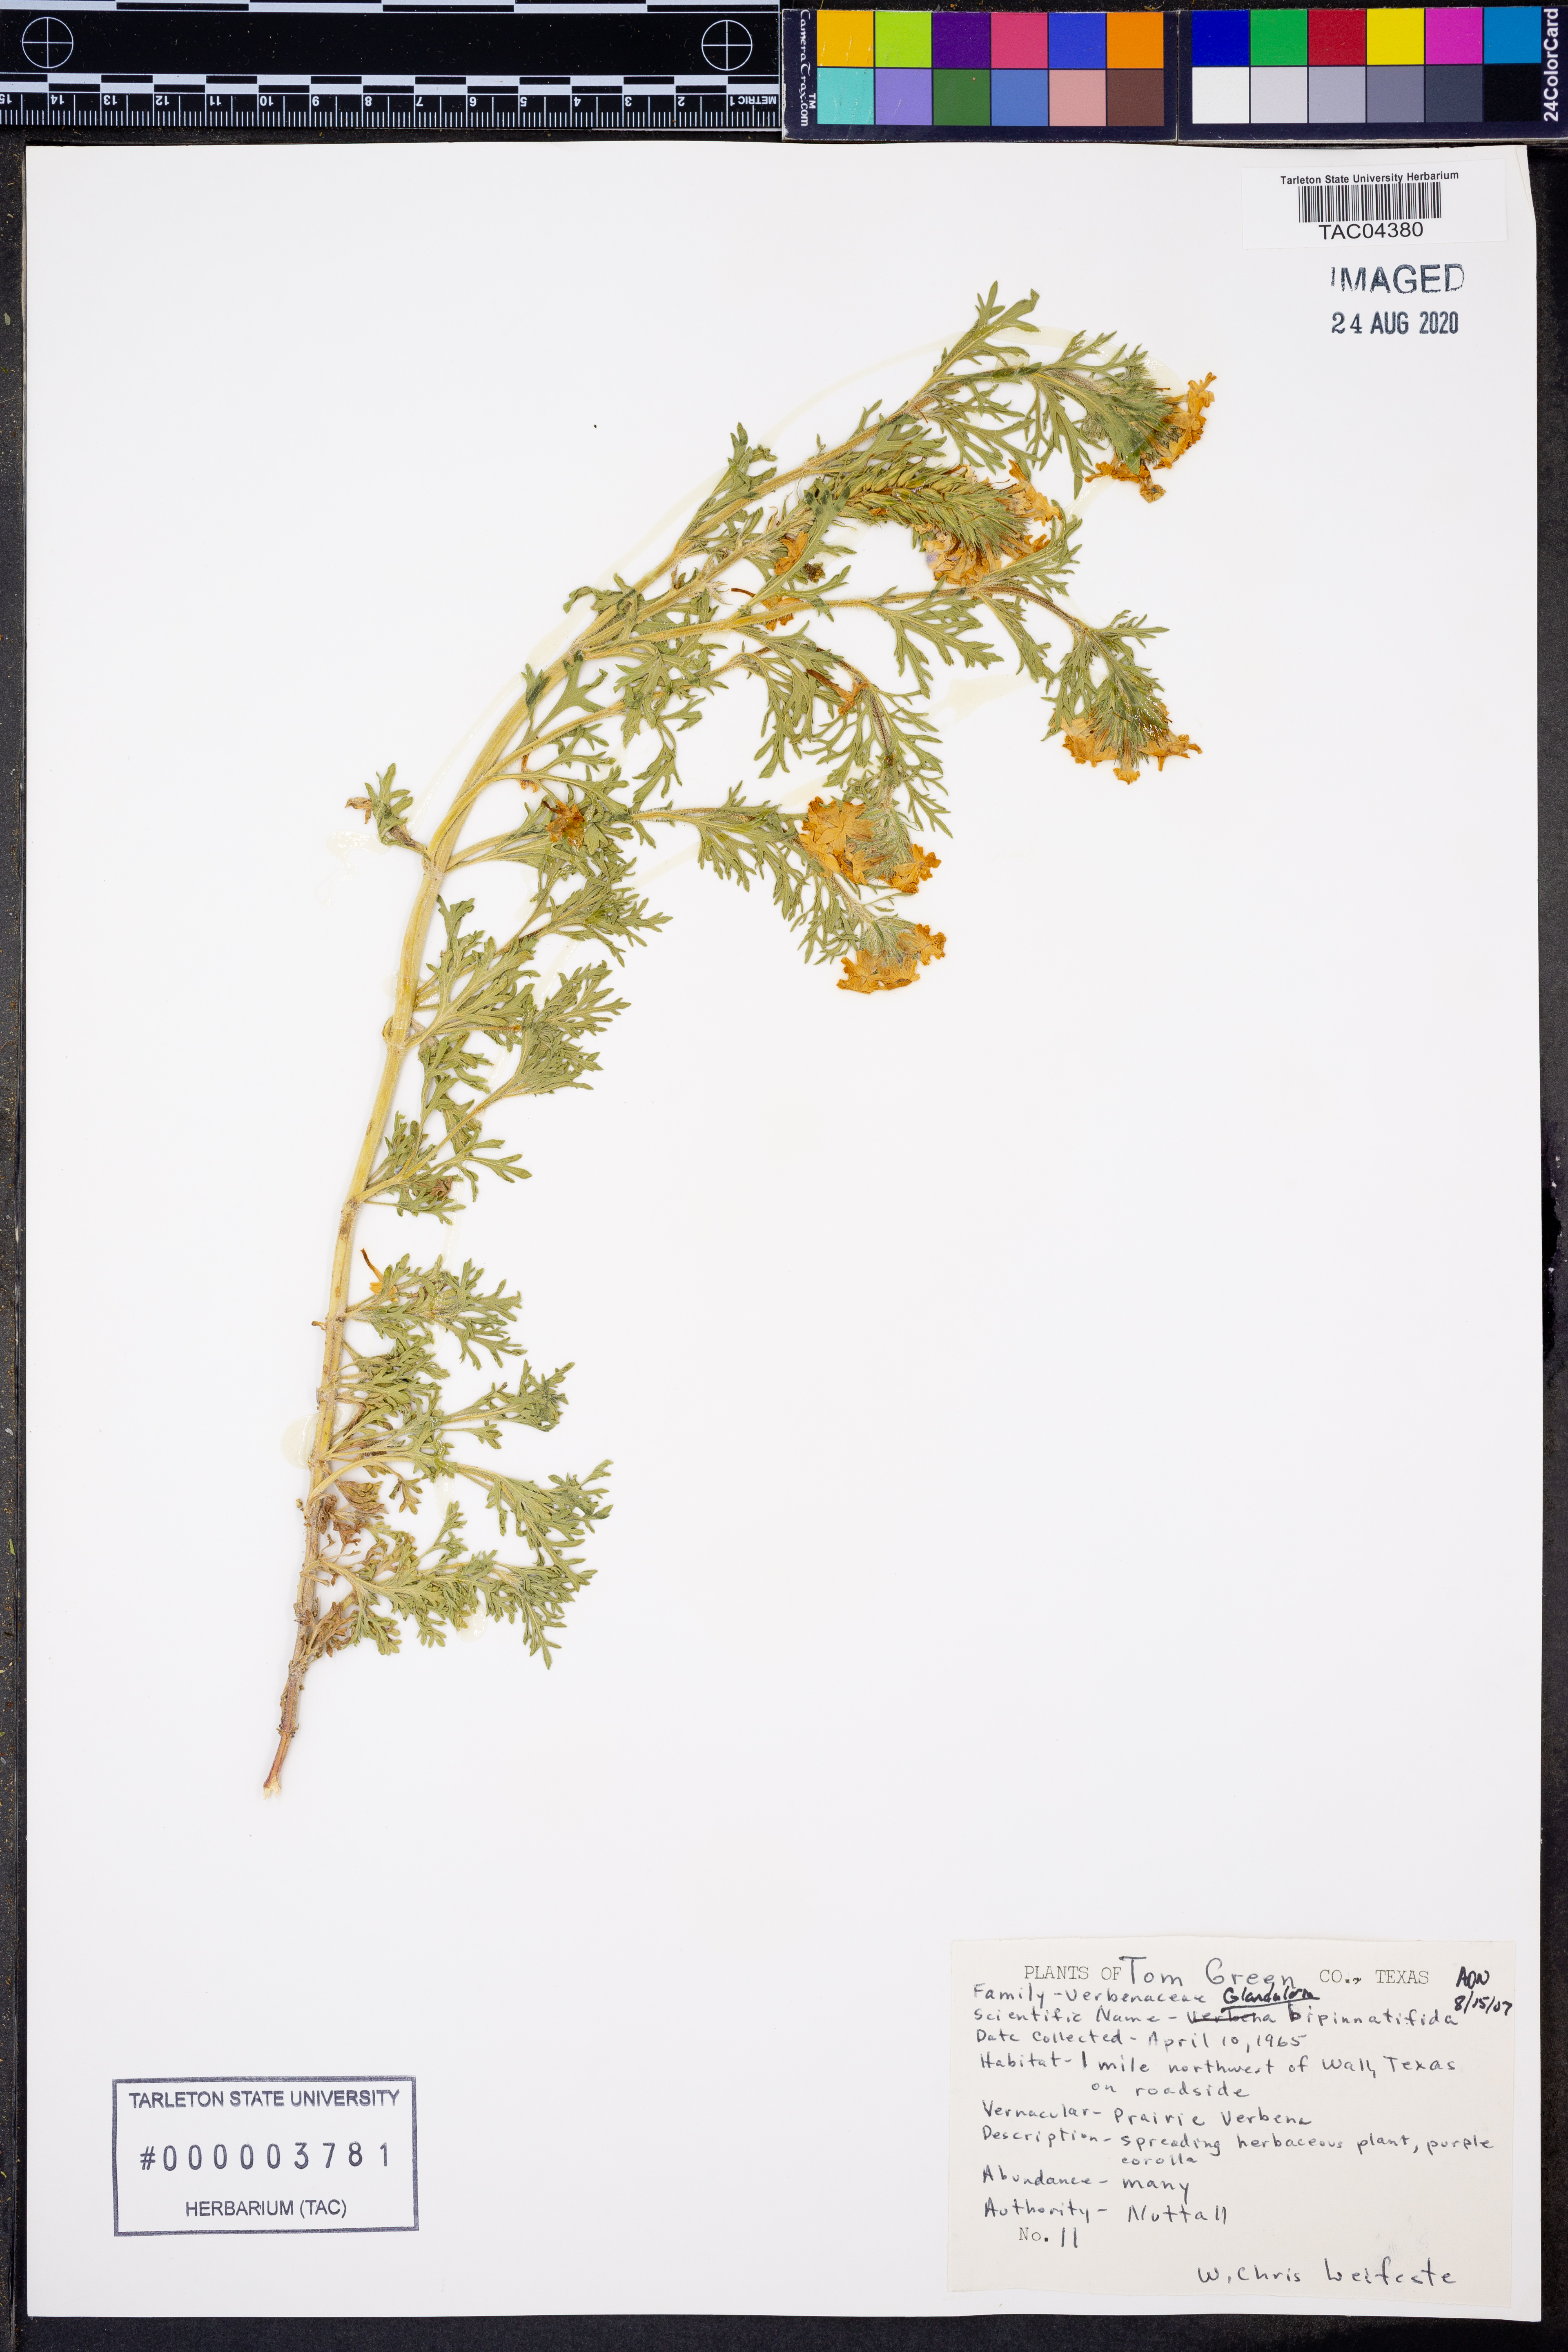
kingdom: Plantae
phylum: Tracheophyta
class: Magnoliopsida
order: Lamiales
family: Verbenaceae
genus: Verbena
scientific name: Verbena bipinnatifida
